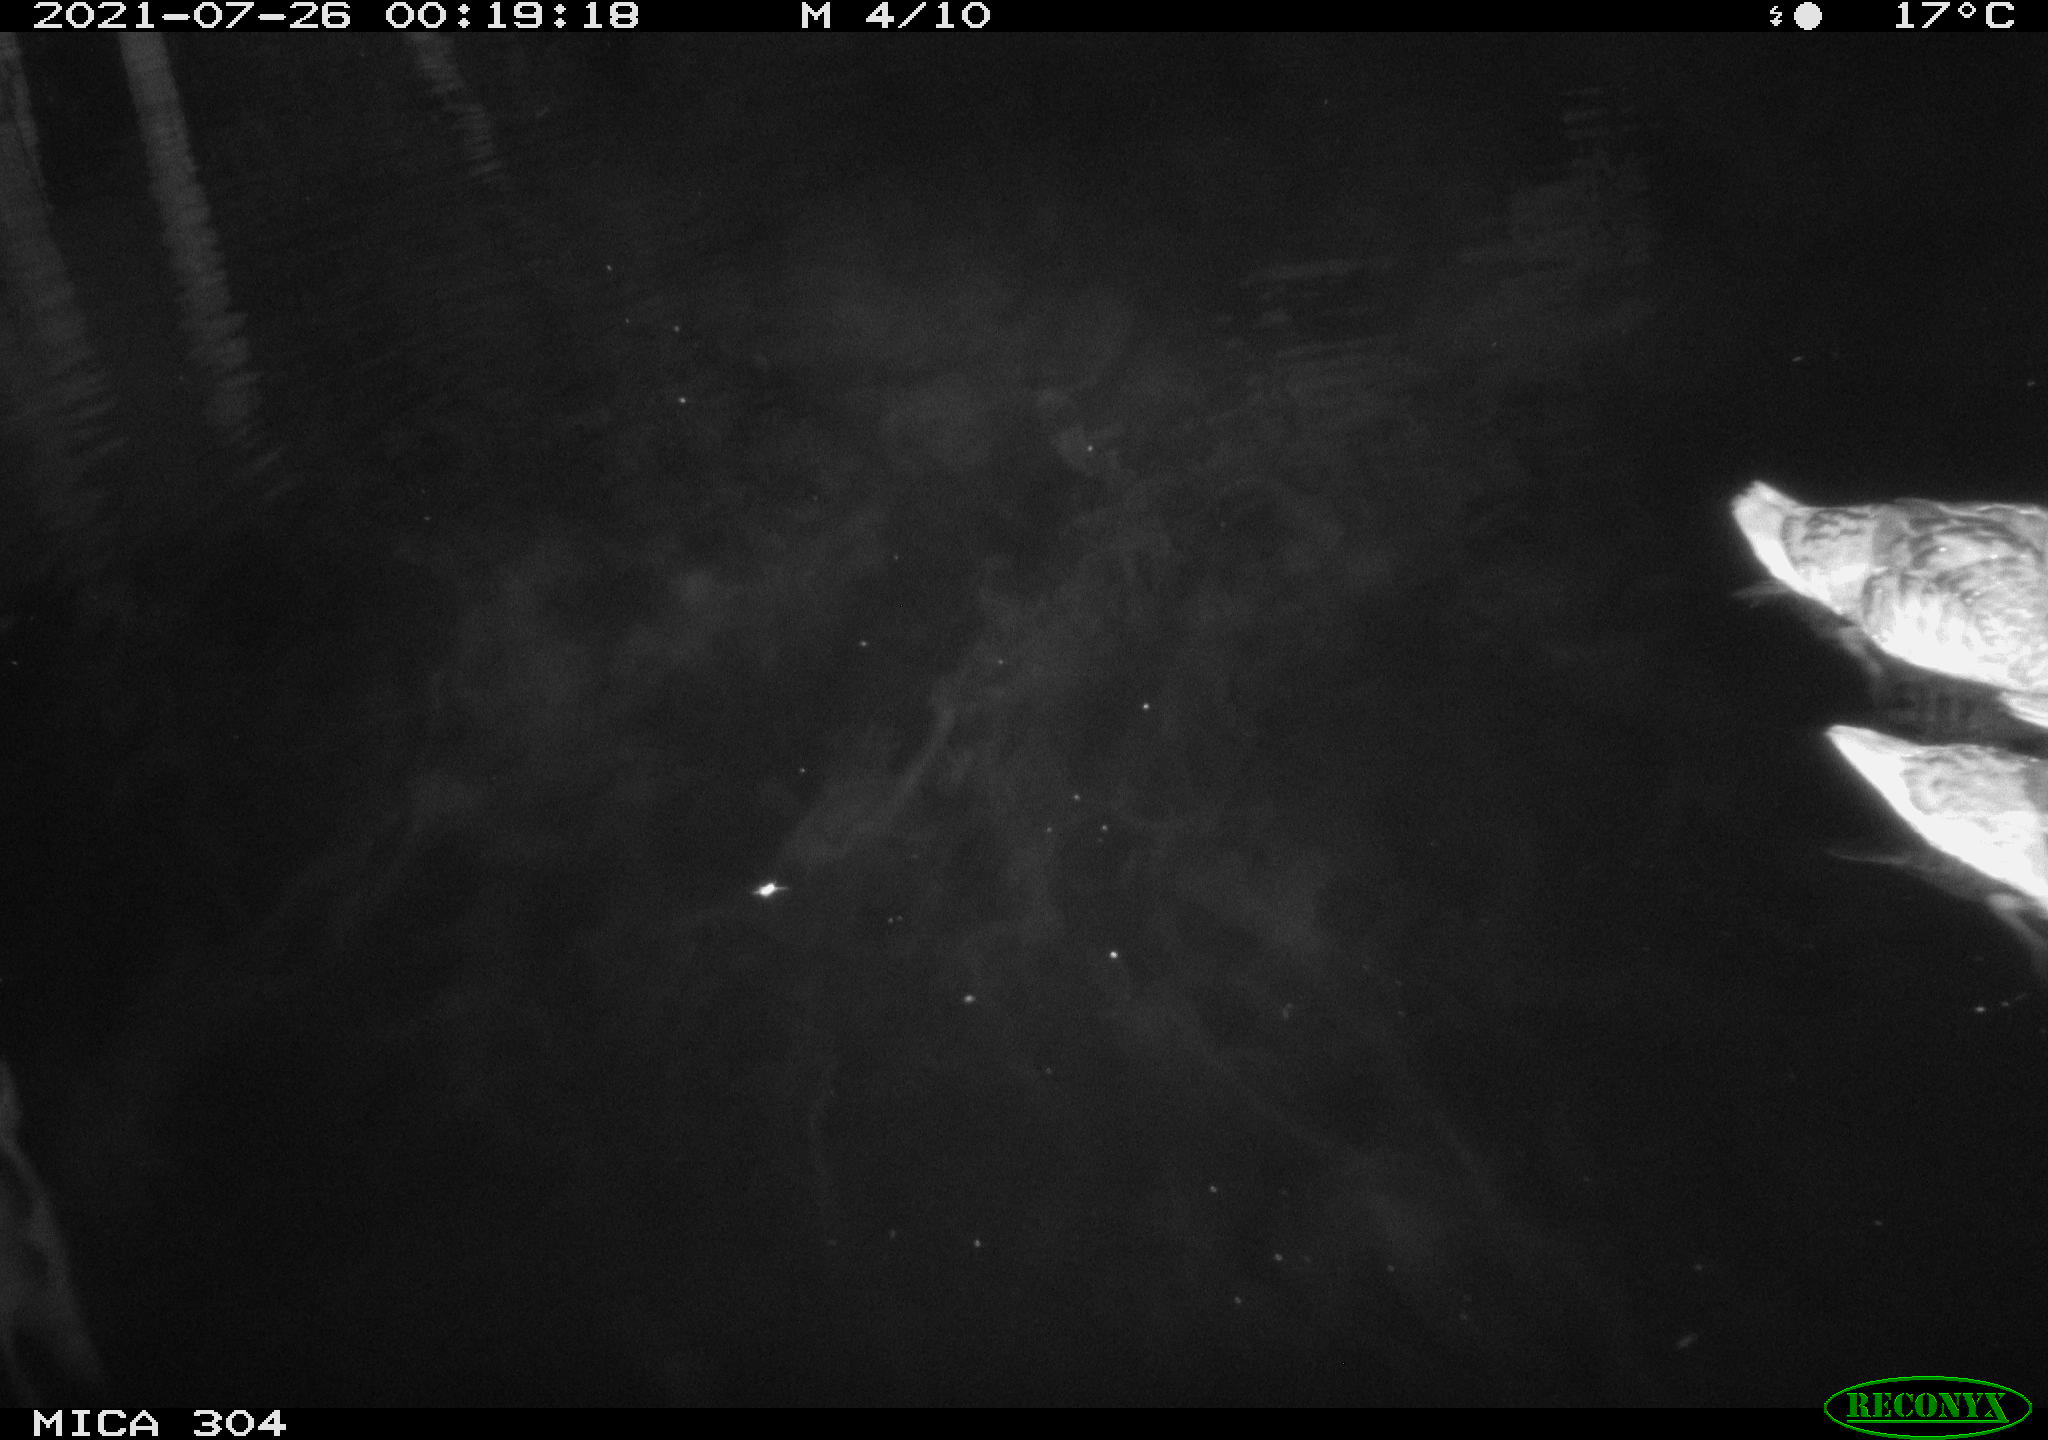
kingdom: Animalia
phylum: Chordata
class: Aves
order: Anseriformes
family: Anatidae
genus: Mareca
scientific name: Mareca strepera
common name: Gadwall
